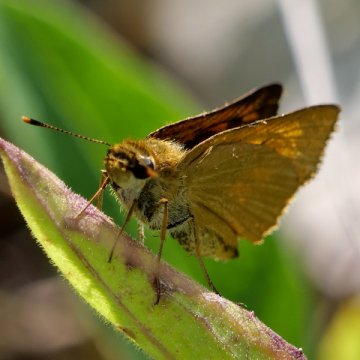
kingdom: Animalia
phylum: Arthropoda
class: Insecta
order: Lepidoptera
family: Hesperiidae
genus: Atrytone
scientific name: Atrytone delaware
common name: Delaware Skipper
